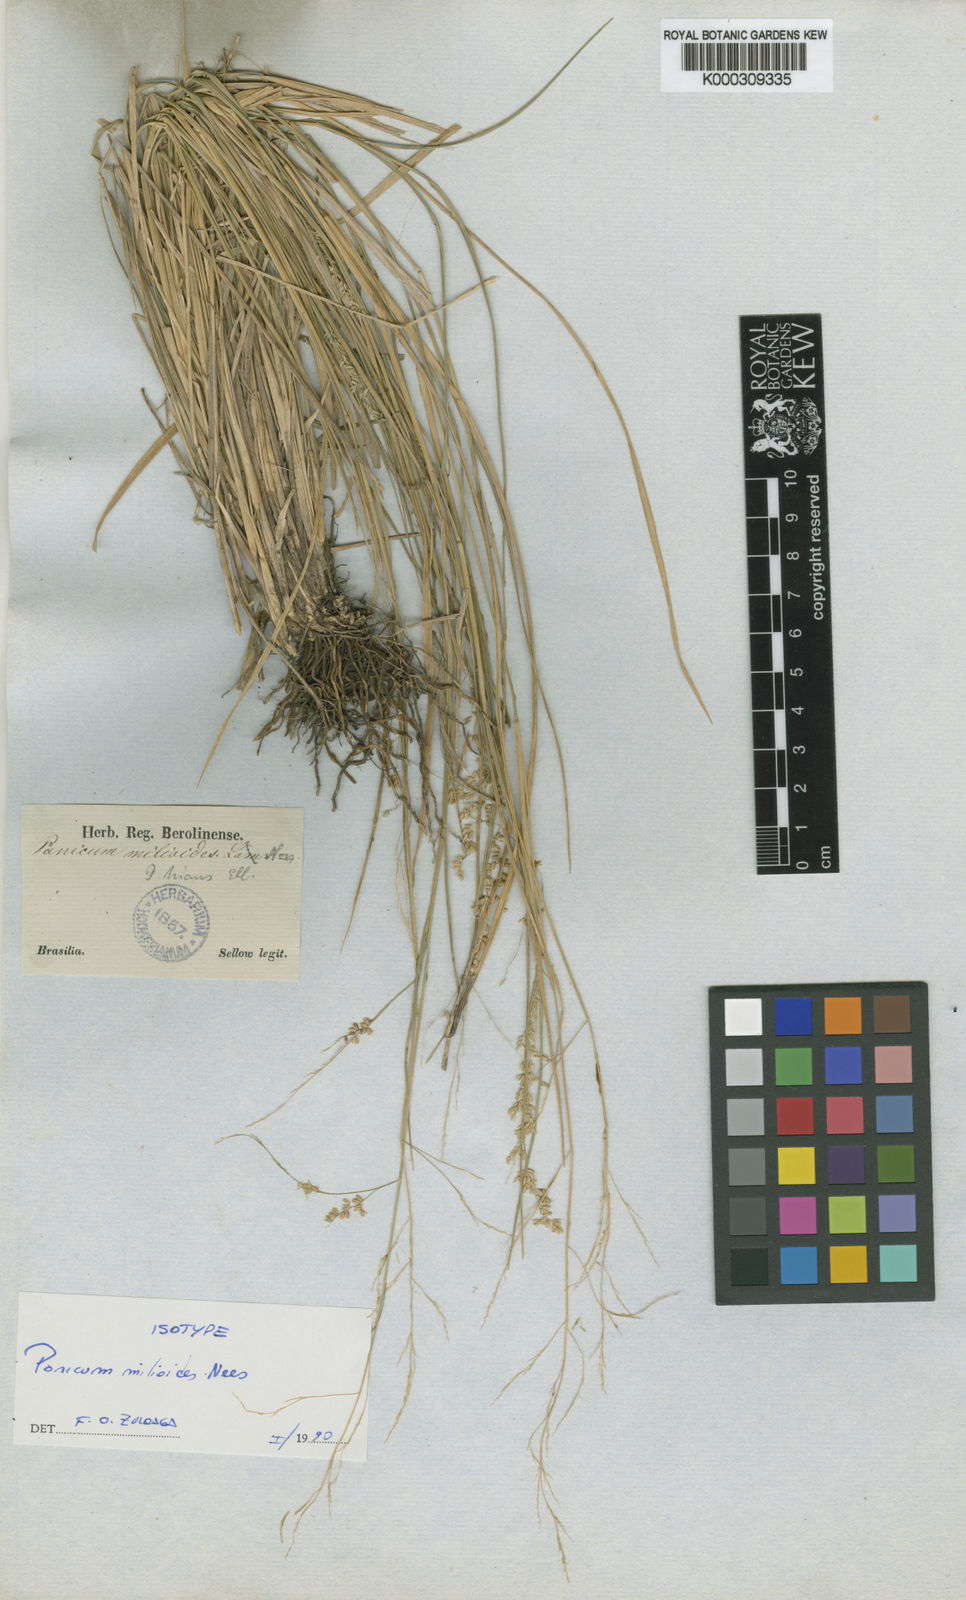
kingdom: Plantae
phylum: Tracheophyta
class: Liliopsida
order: Poales
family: Poaceae
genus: Steinchisma
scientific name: Steinchisma hians
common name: Gaping panic grass
